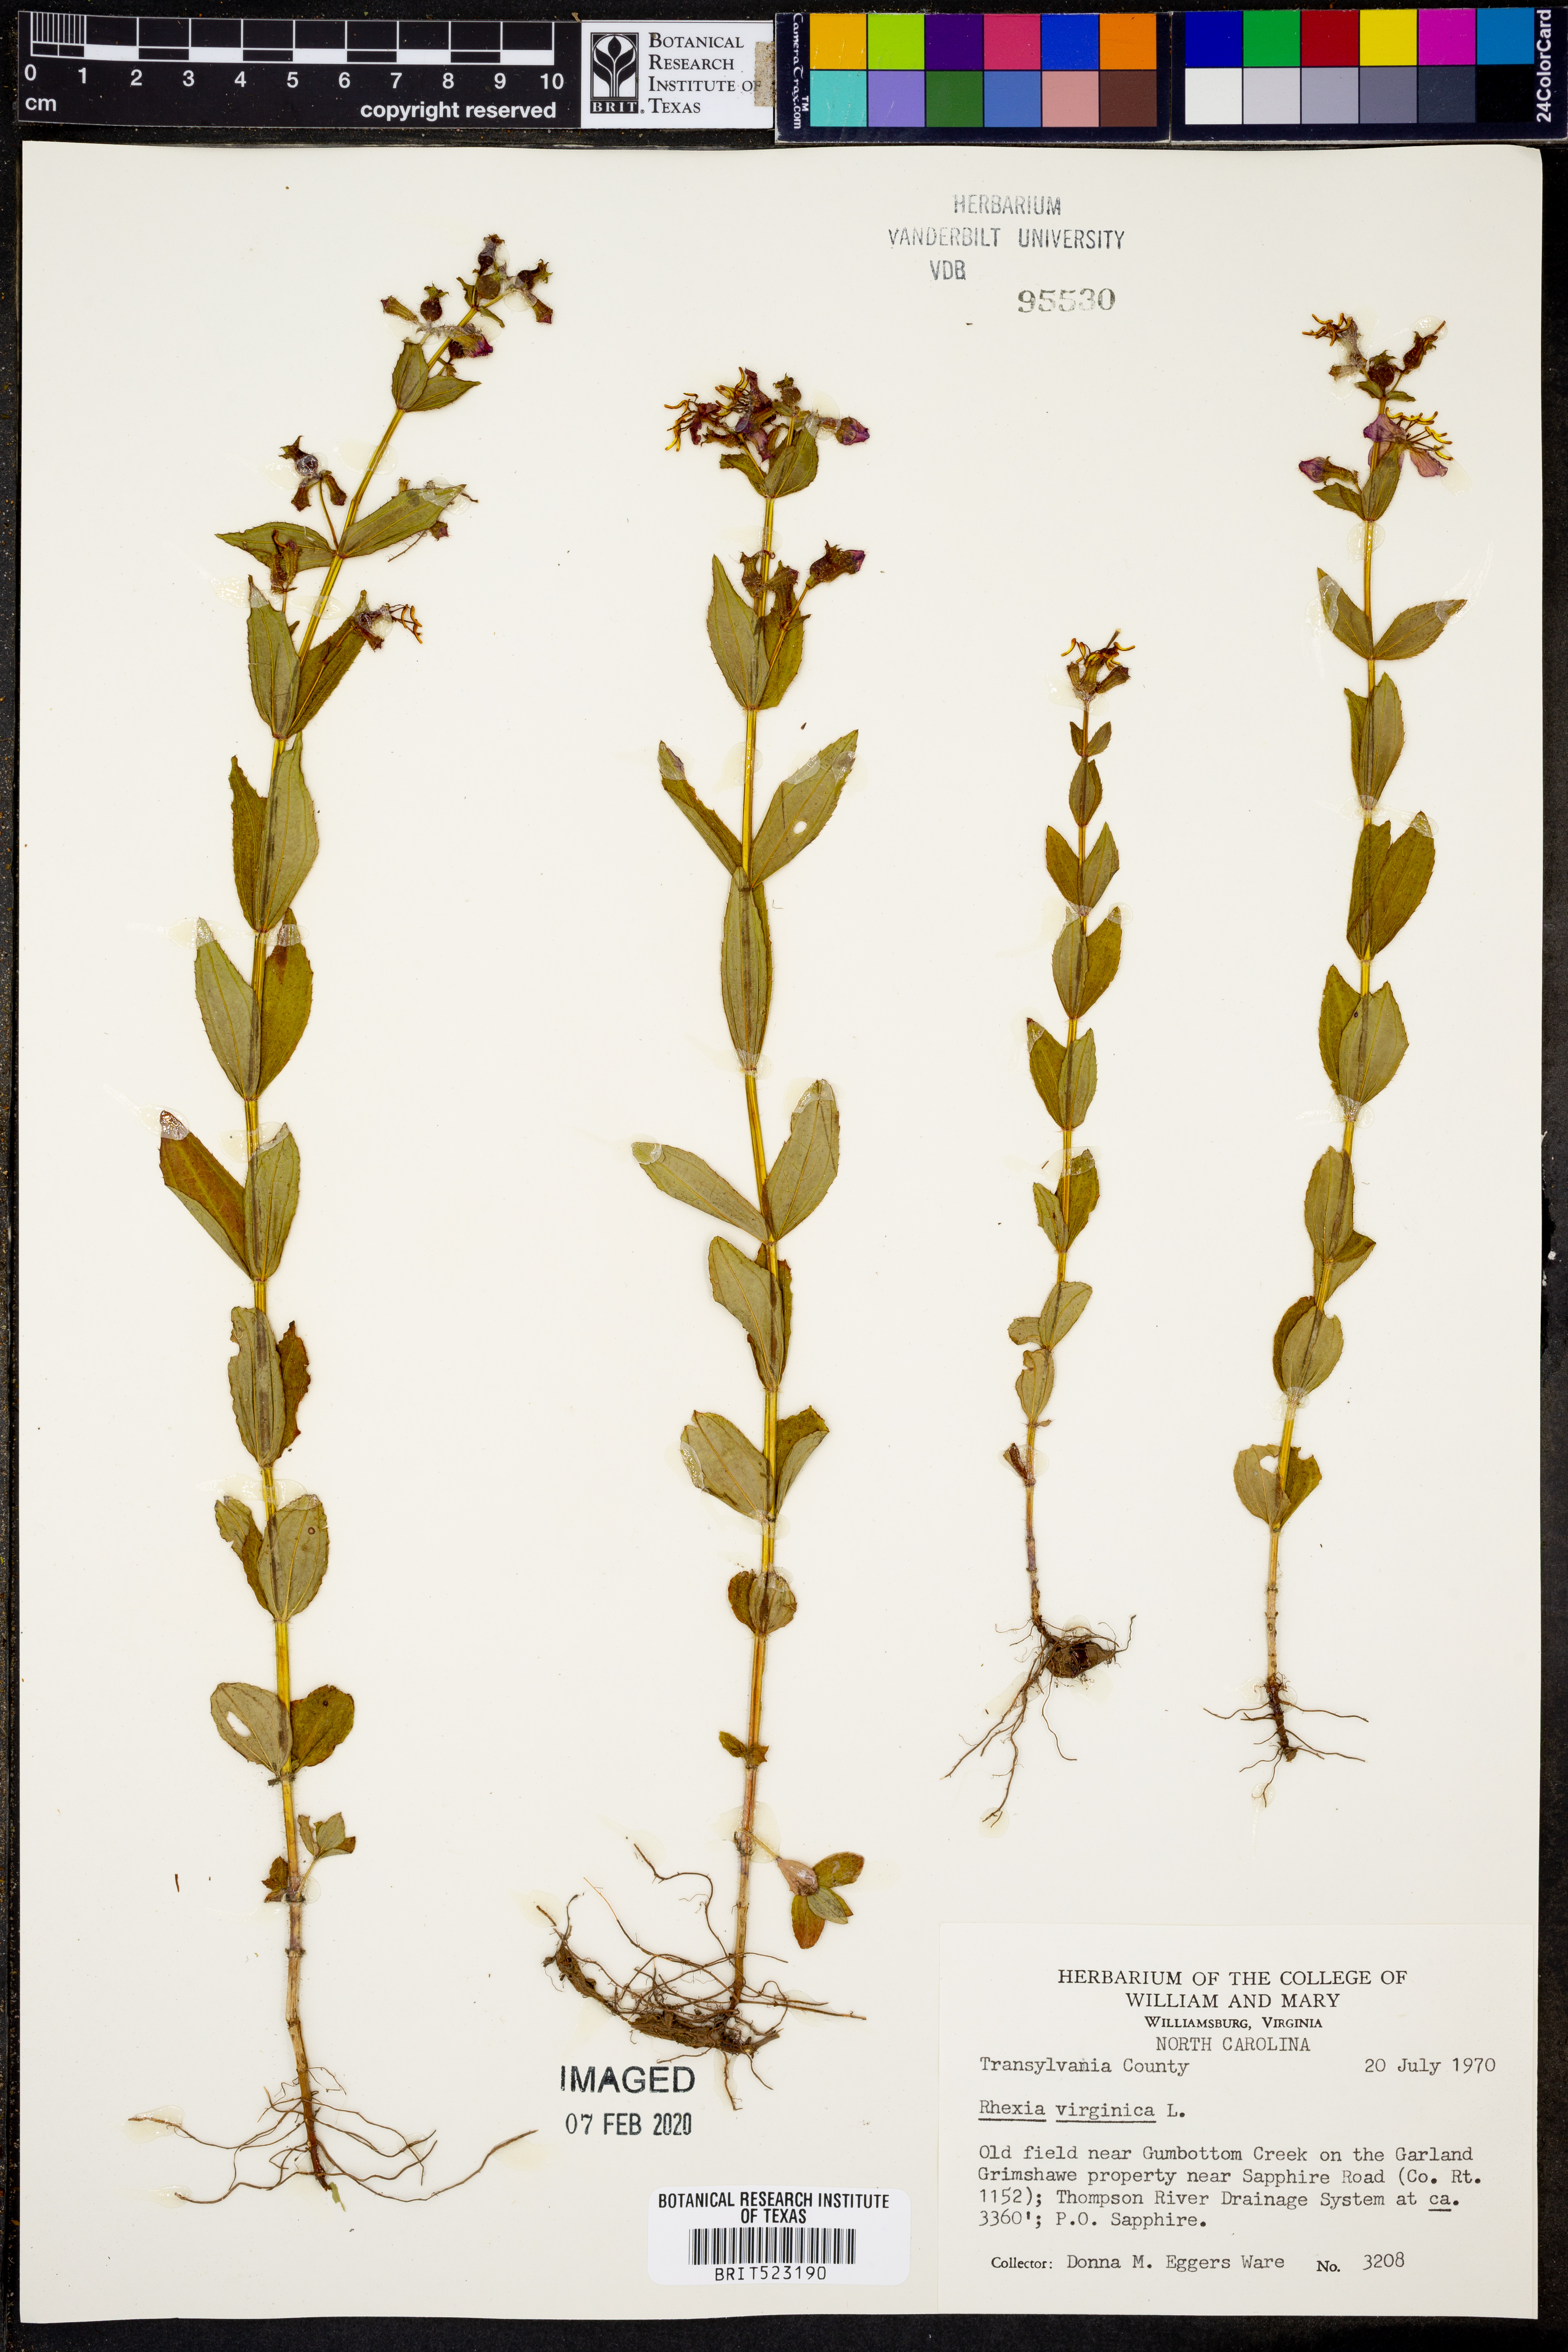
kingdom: Plantae
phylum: Tracheophyta
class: Magnoliopsida
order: Myrtales
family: Melastomataceae
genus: Rhexia
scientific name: Rhexia virginica
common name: Common meadow beauty
